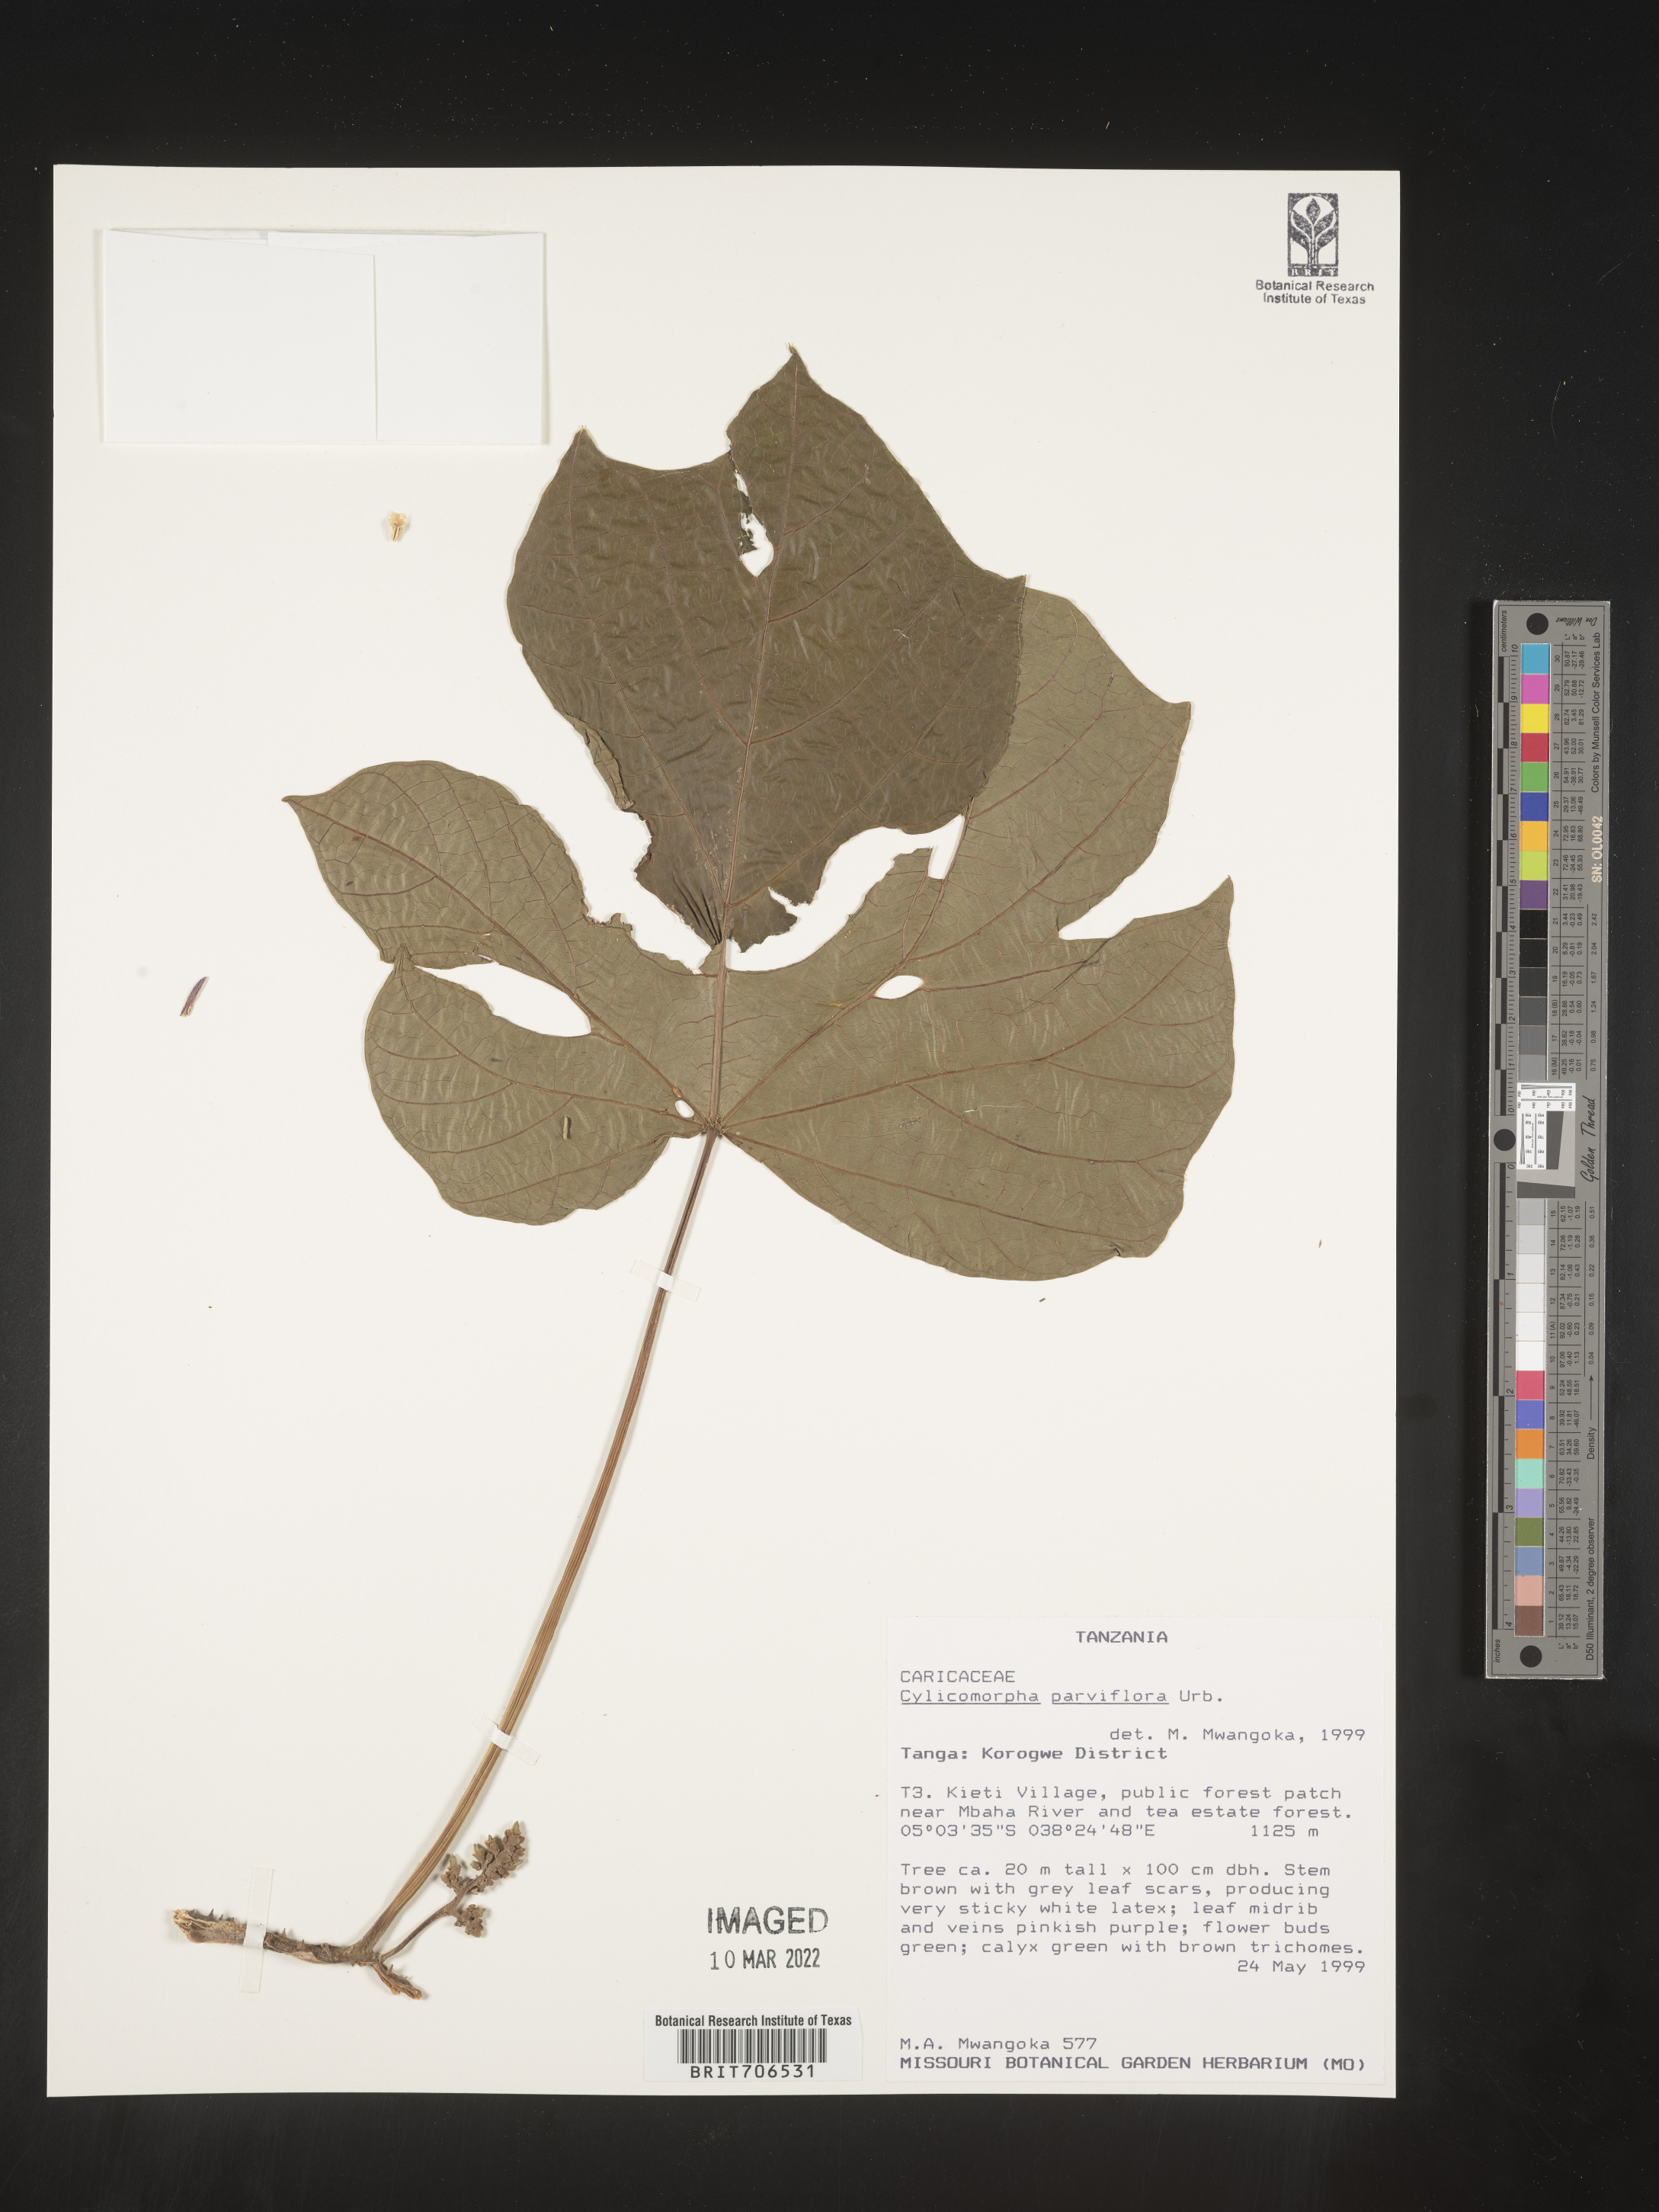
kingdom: Plantae
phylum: Tracheophyta
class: Magnoliopsida
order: Brassicales
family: Caricaceae
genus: Cylicomorpha
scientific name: Cylicomorpha
